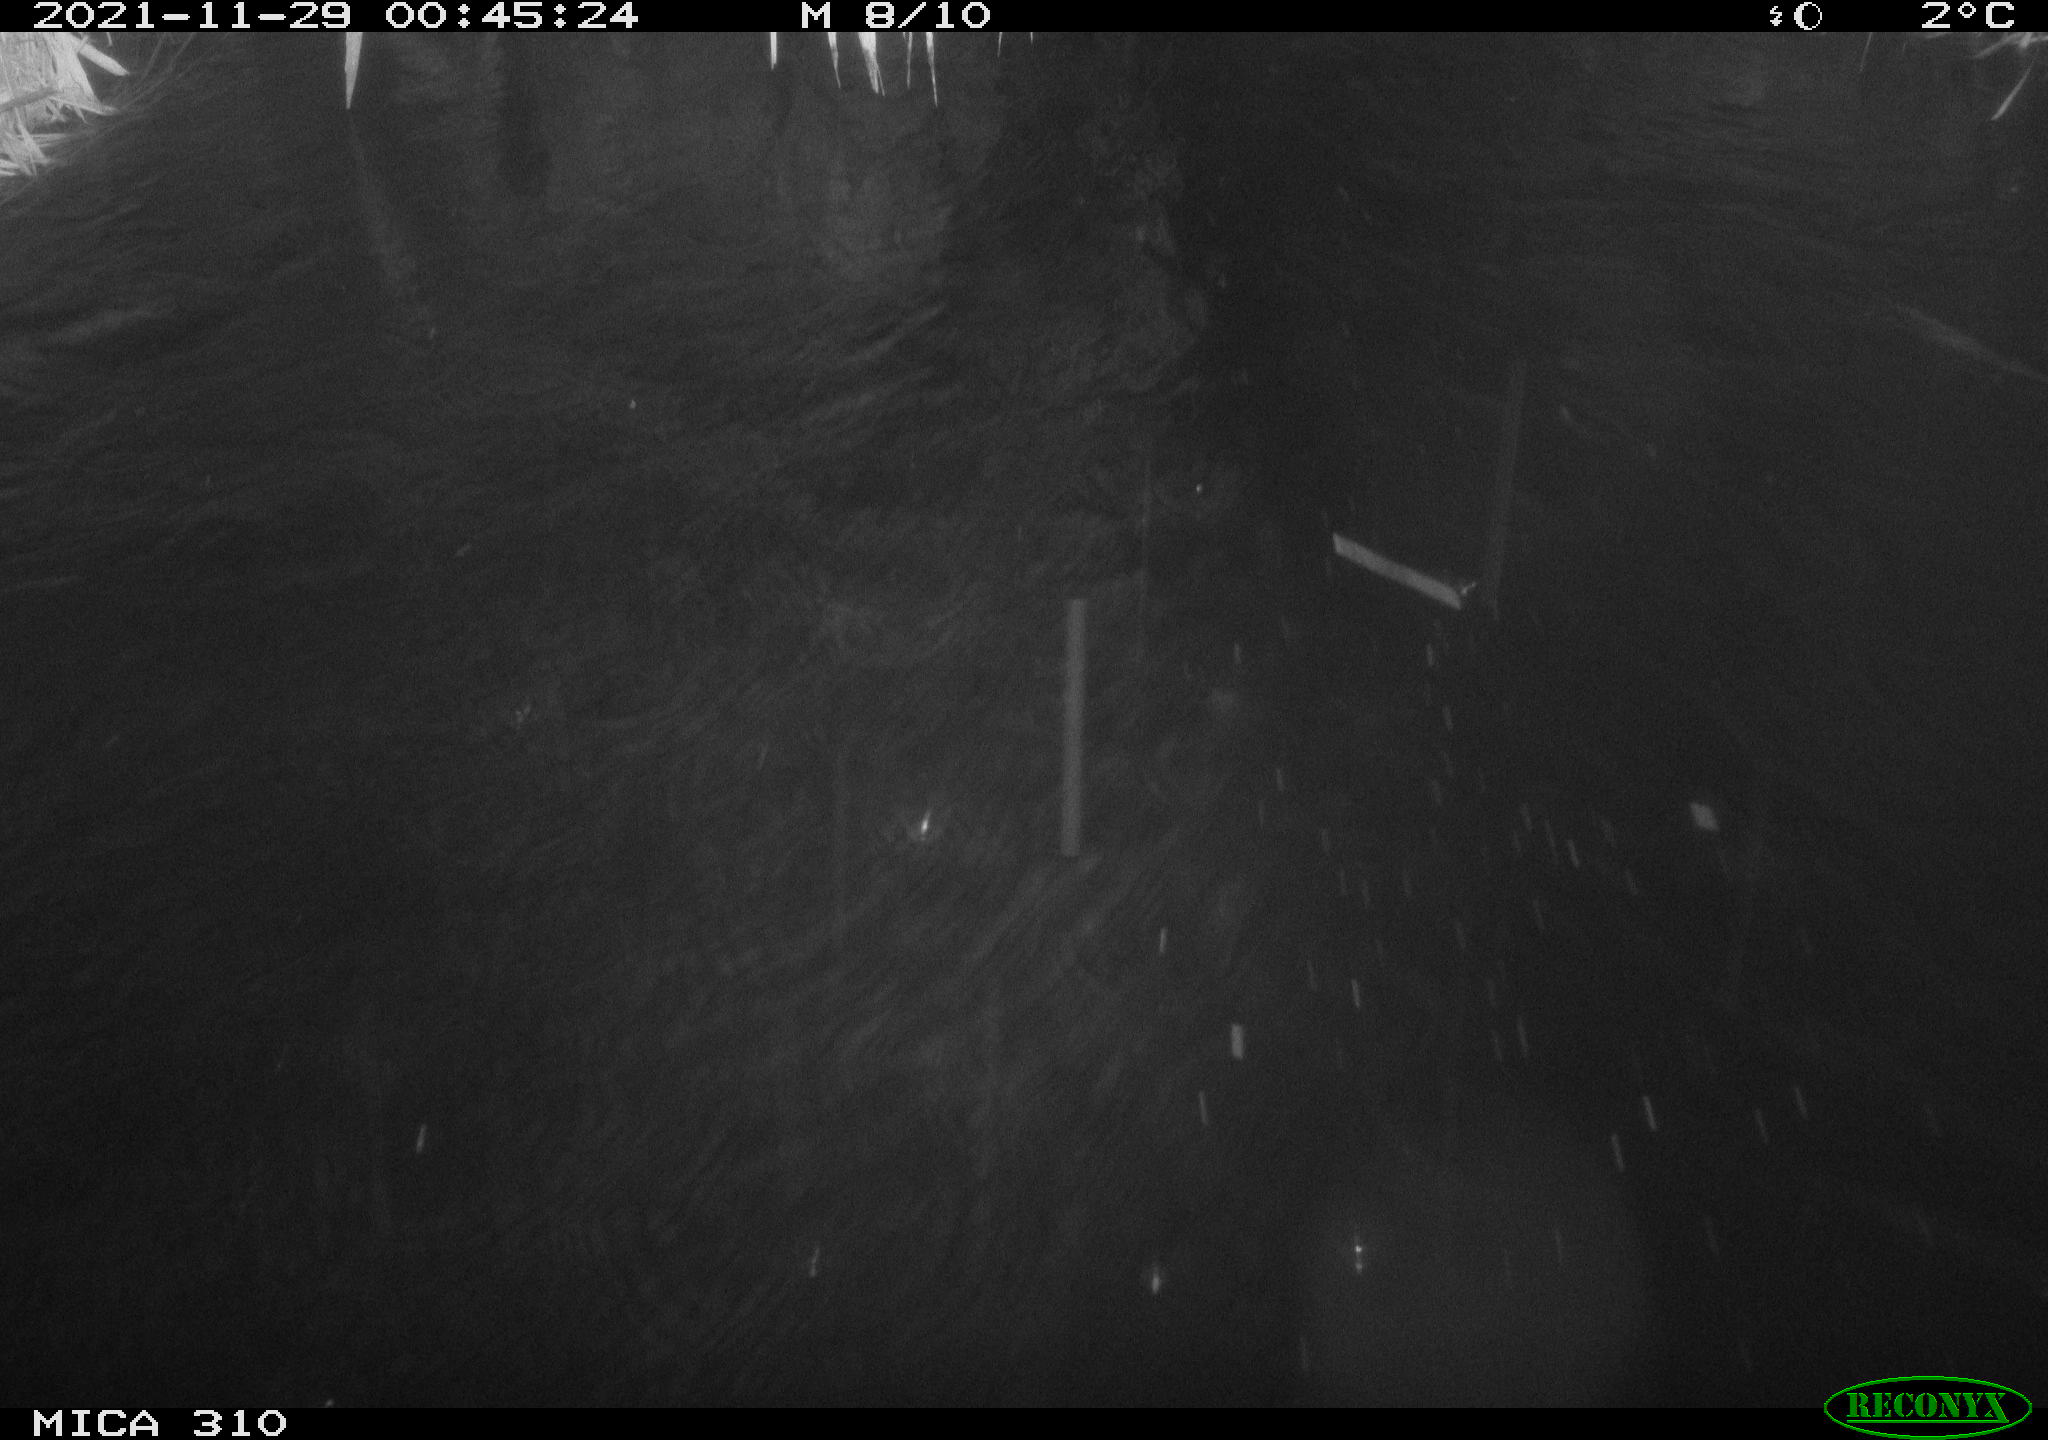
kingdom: Animalia
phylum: Chordata
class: Mammalia
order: Rodentia
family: Muridae
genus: Rattus
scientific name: Rattus norvegicus
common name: Brown rat
